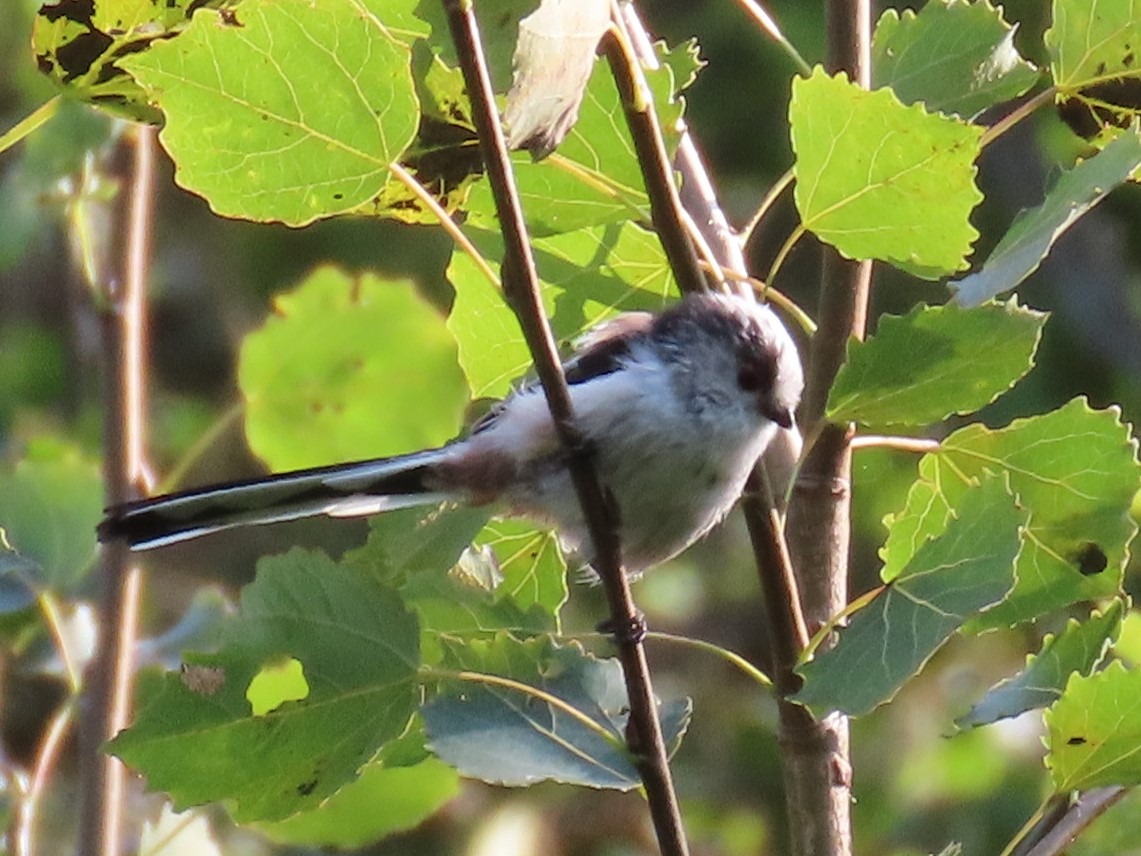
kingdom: Animalia
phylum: Chordata
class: Aves
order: Passeriformes
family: Aegithalidae
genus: Aegithalos
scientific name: Aegithalos caudatus
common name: Halemejse
